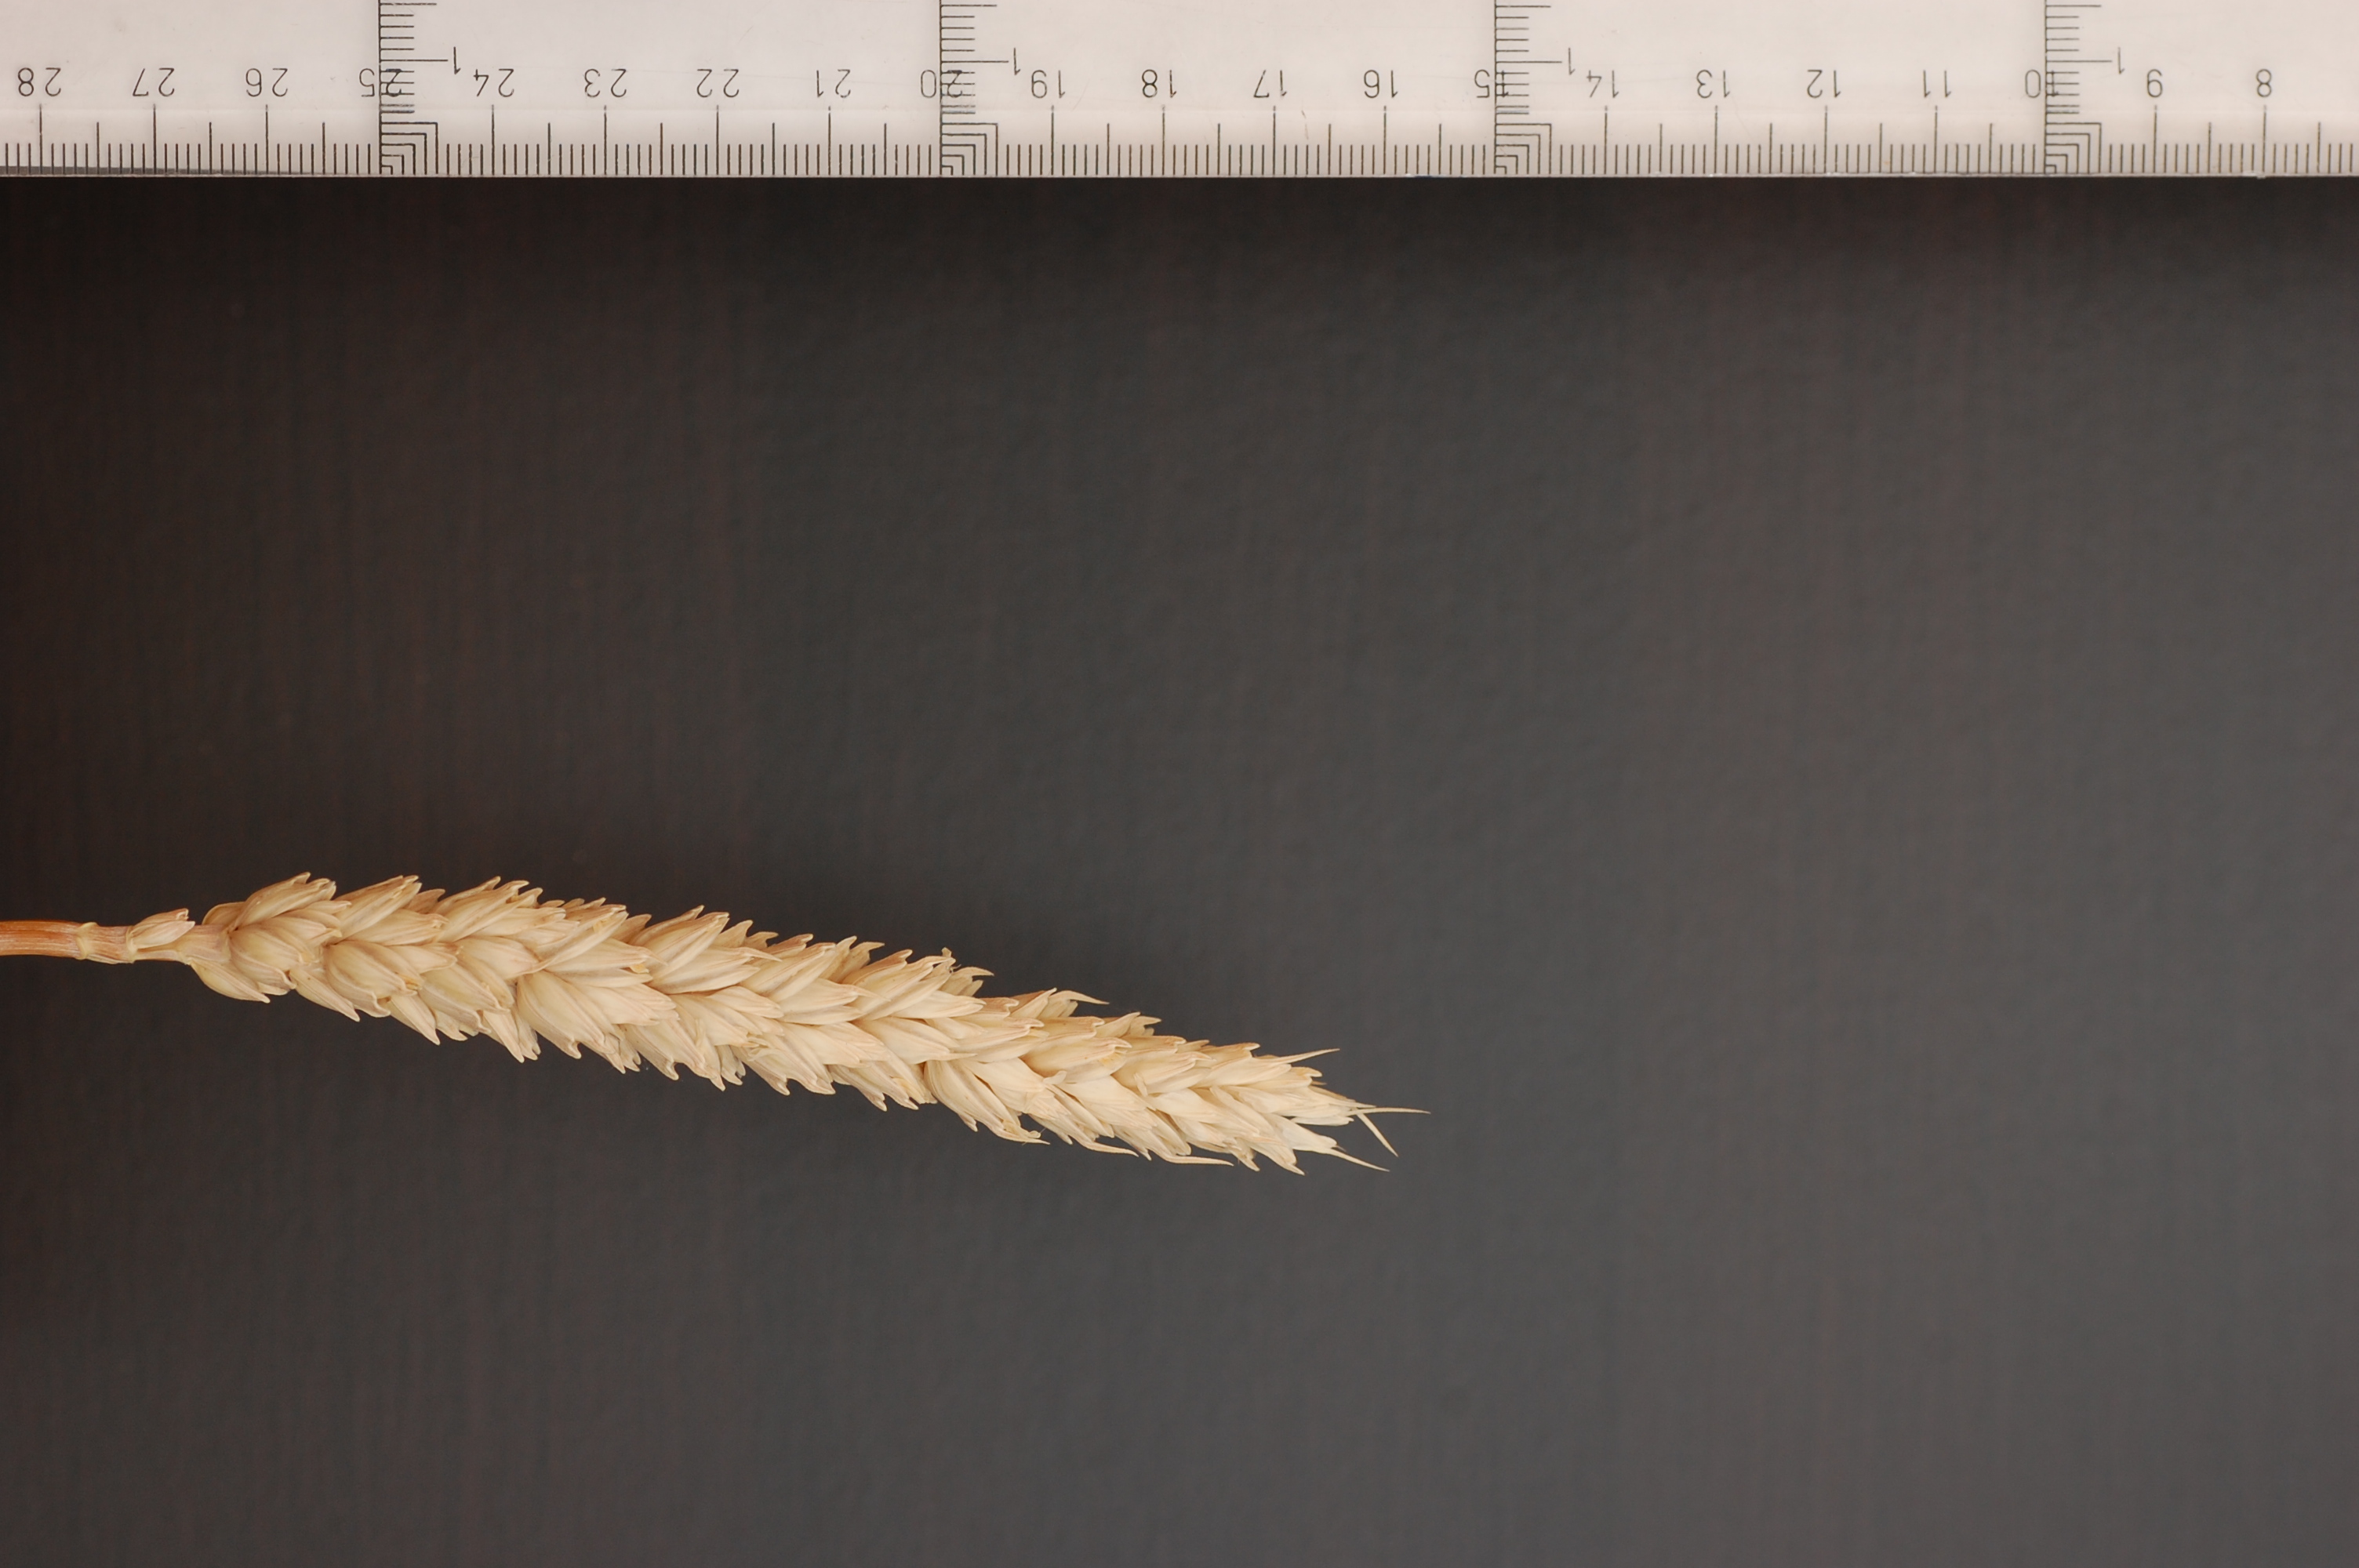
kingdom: Plantae
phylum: Tracheophyta
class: Liliopsida
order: Poales
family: Poaceae
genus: Triticum
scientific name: Triticum aestivum
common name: Common wheat
